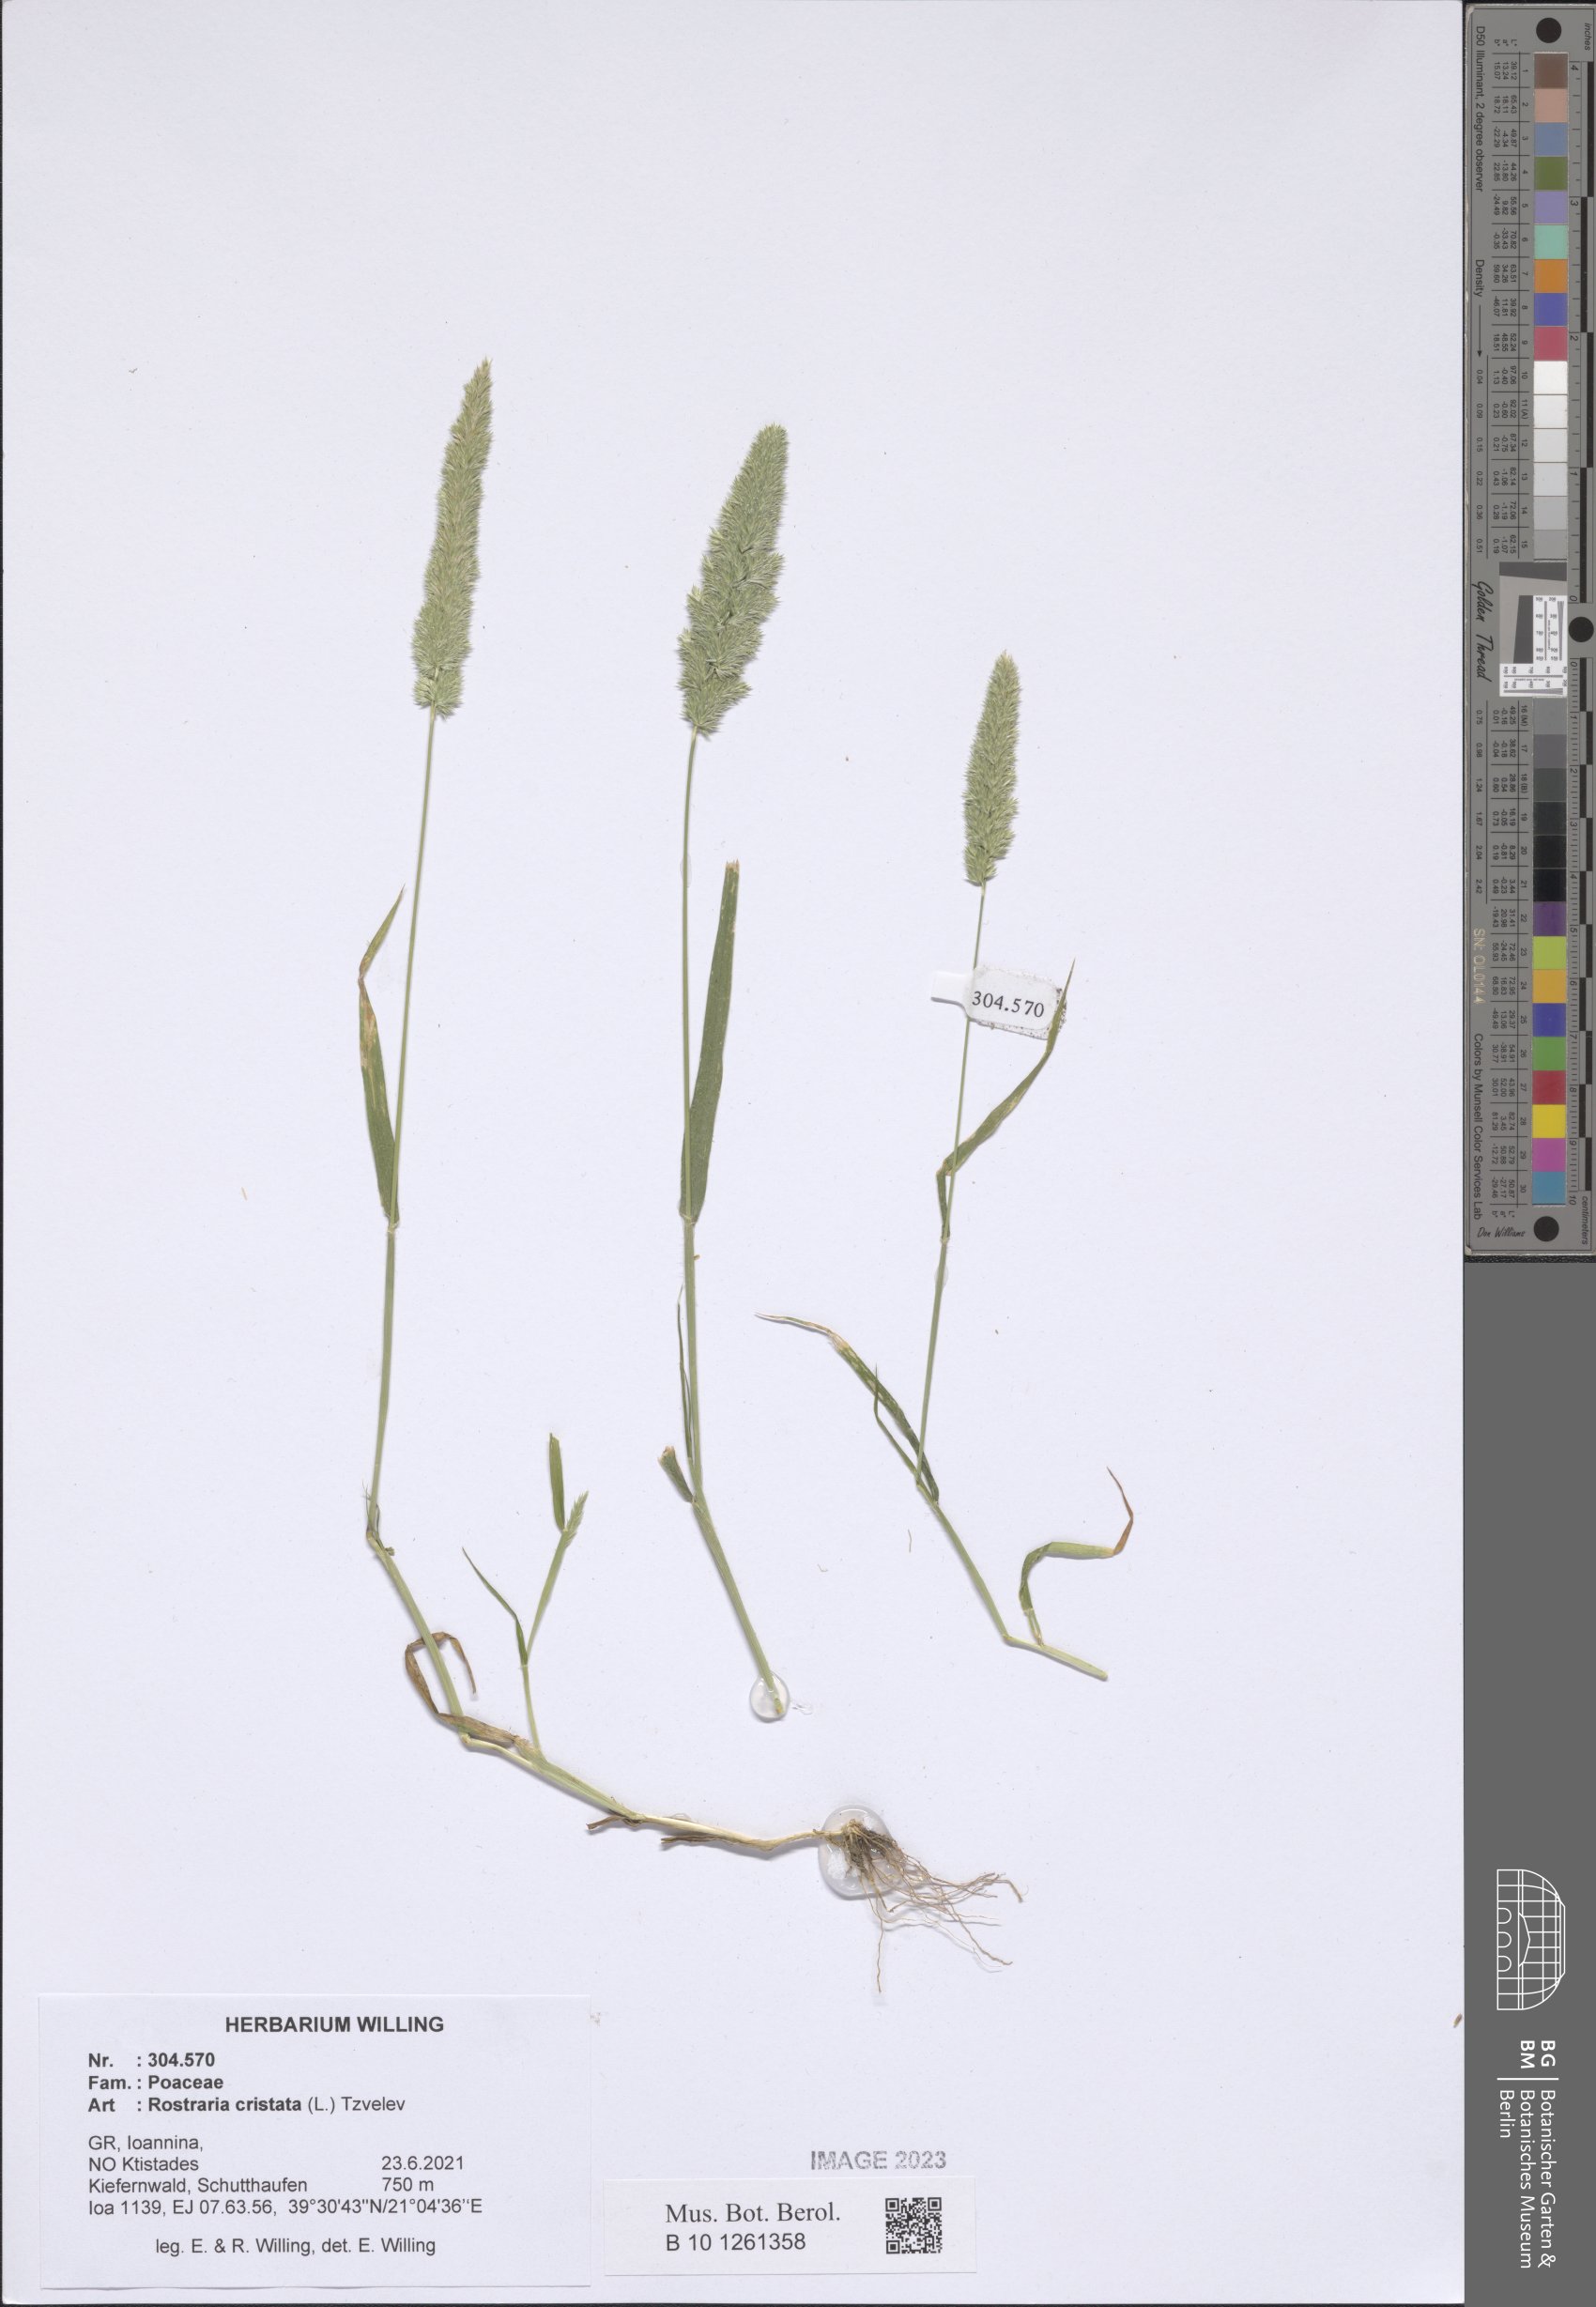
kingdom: Plantae
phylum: Tracheophyta
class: Liliopsida
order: Poales
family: Poaceae
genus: Rostraria
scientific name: Rostraria cristata
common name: Mediterranean hair-grass
